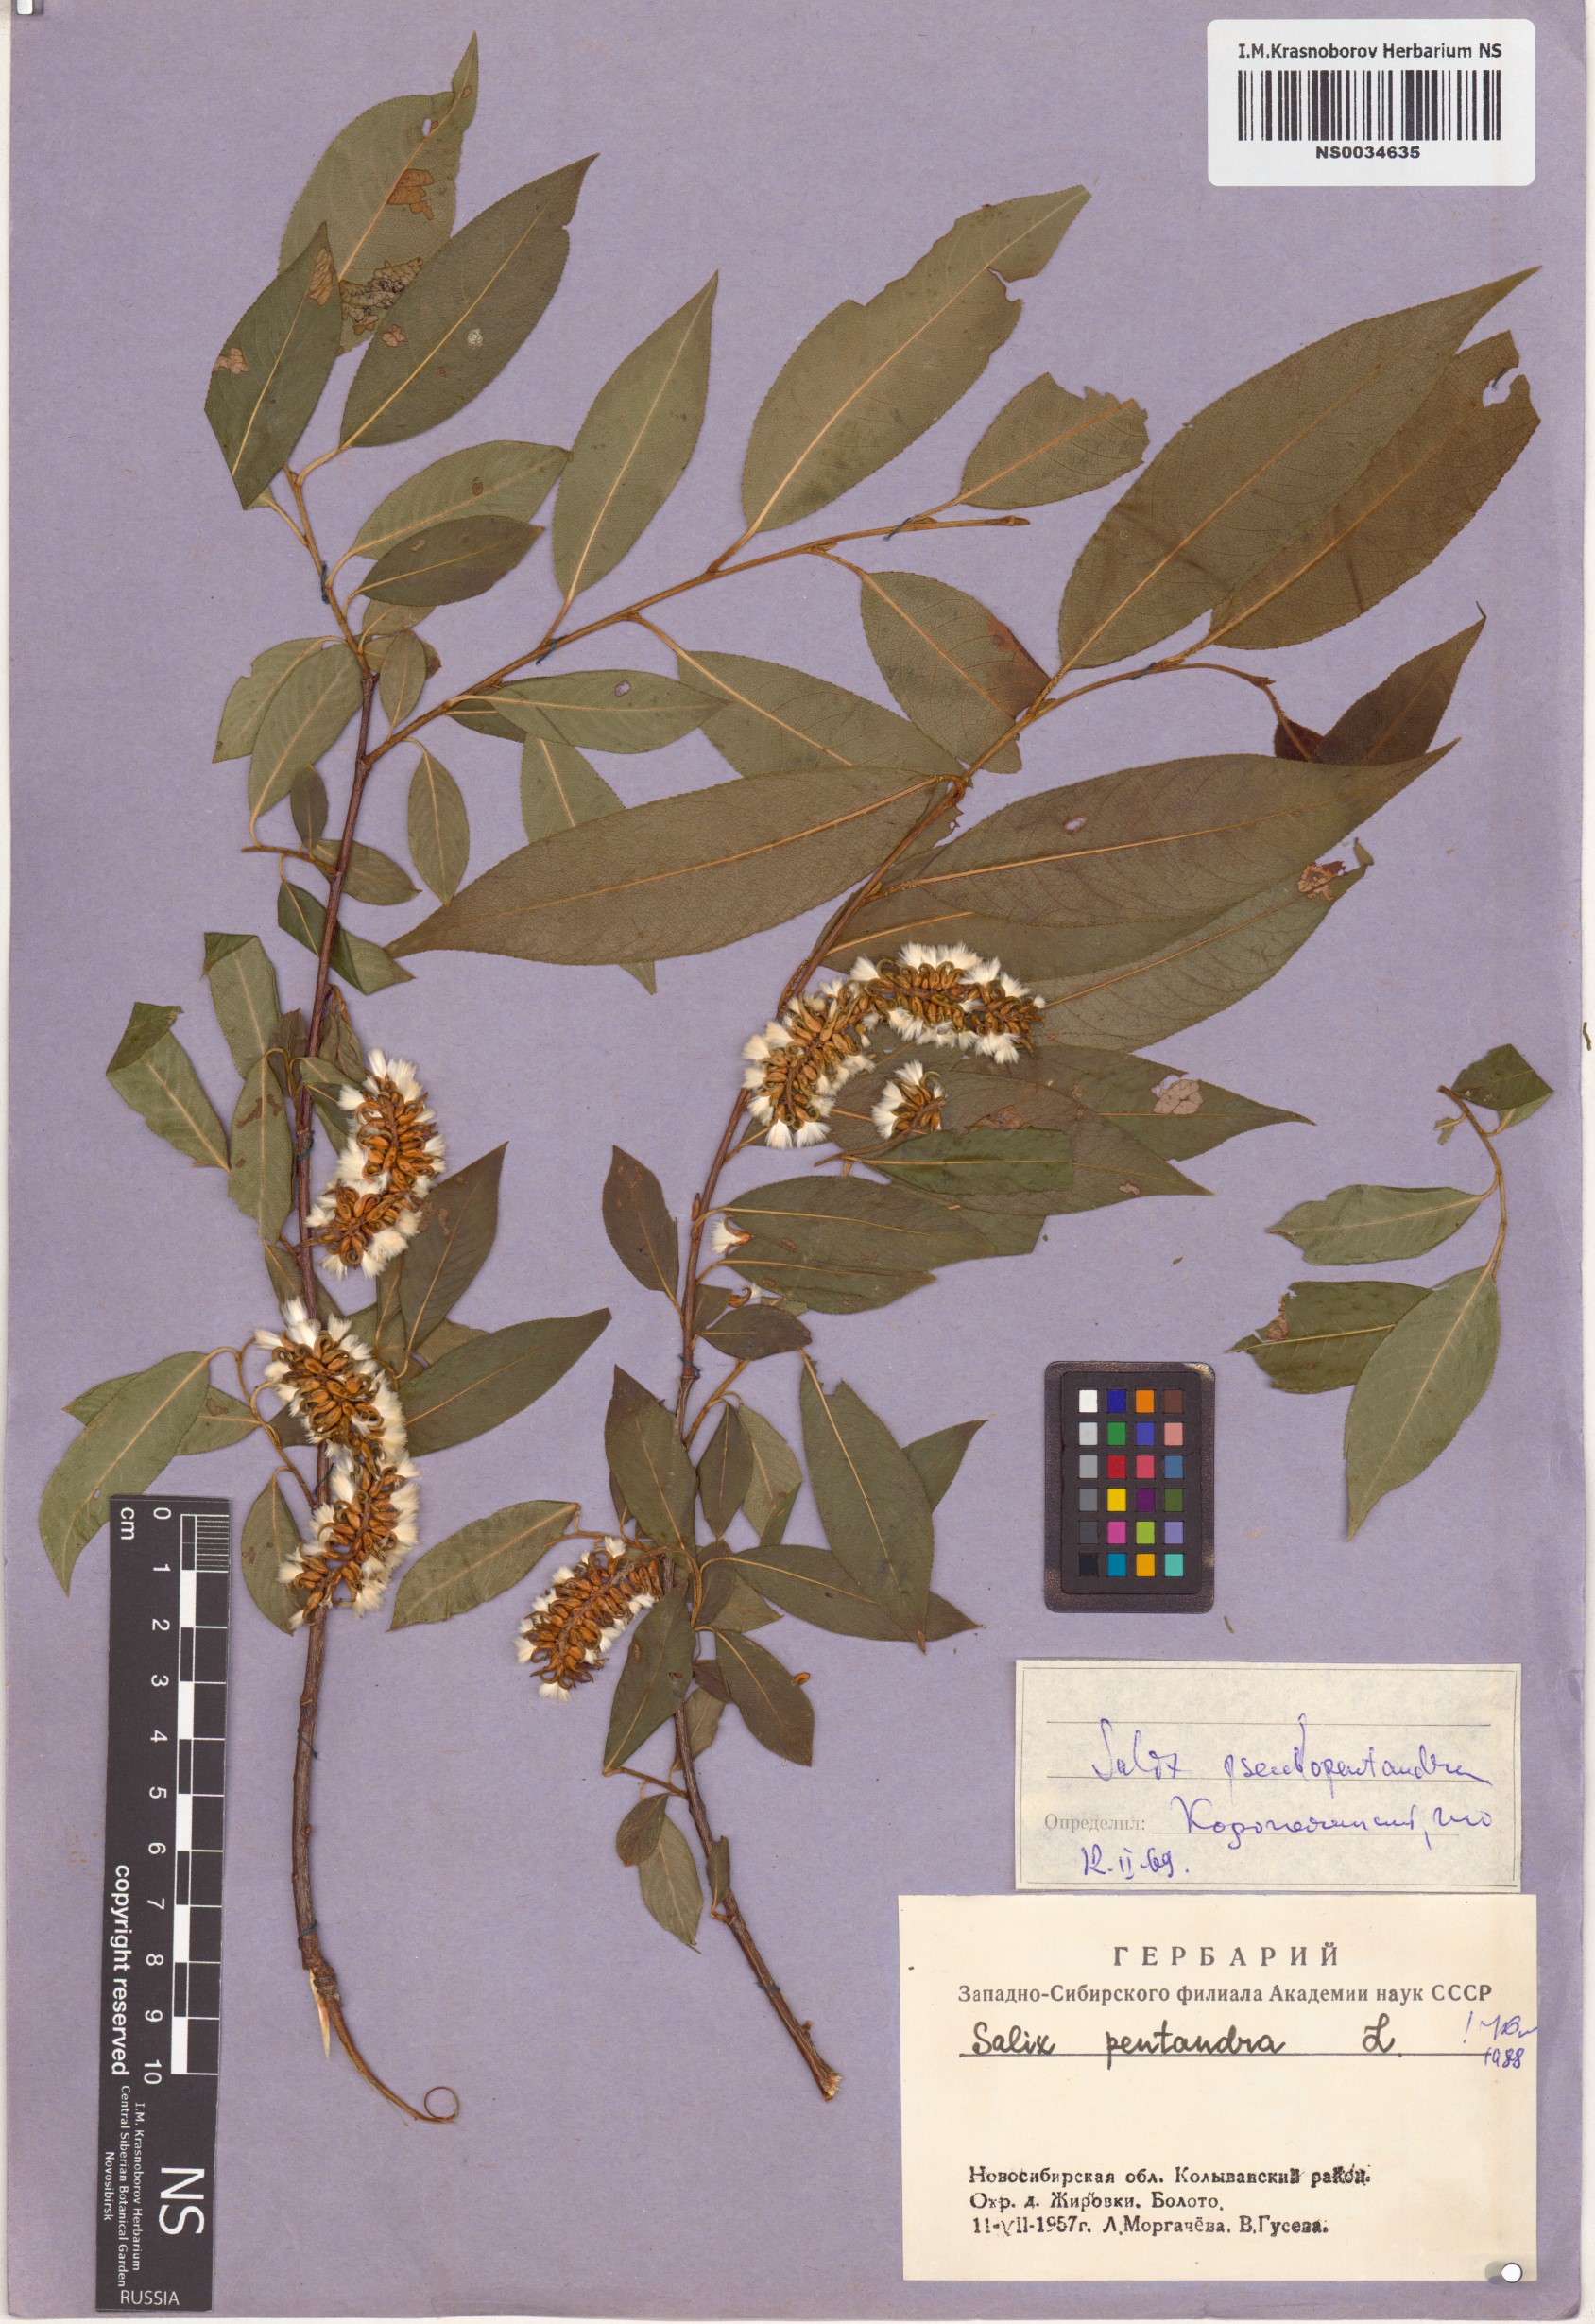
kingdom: Plantae
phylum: Tracheophyta
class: Magnoliopsida
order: Malpighiales
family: Salicaceae
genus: Salix
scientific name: Salix pentandra
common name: Bay willow
